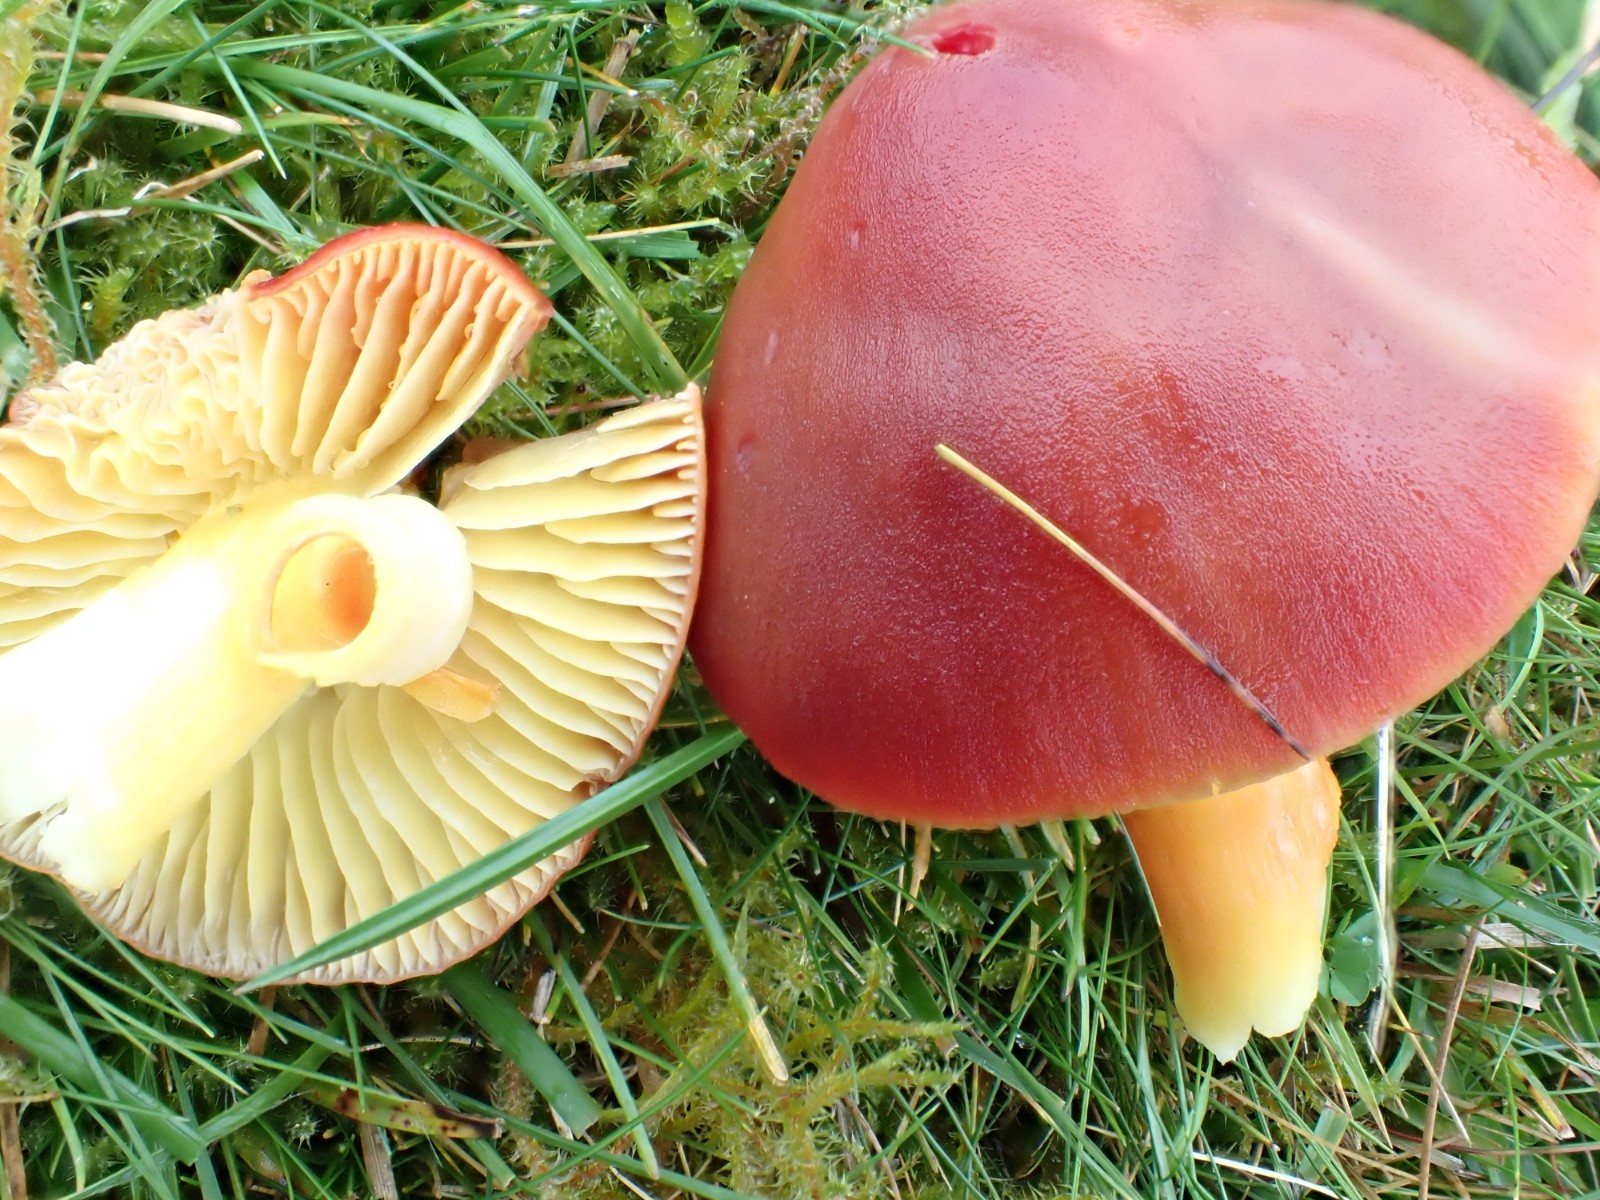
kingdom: Fungi
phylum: Basidiomycota
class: Agaricomycetes
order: Agaricales
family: Hygrophoraceae
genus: Hygrocybe
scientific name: Hygrocybe punicea
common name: skarlagen-vokshat
